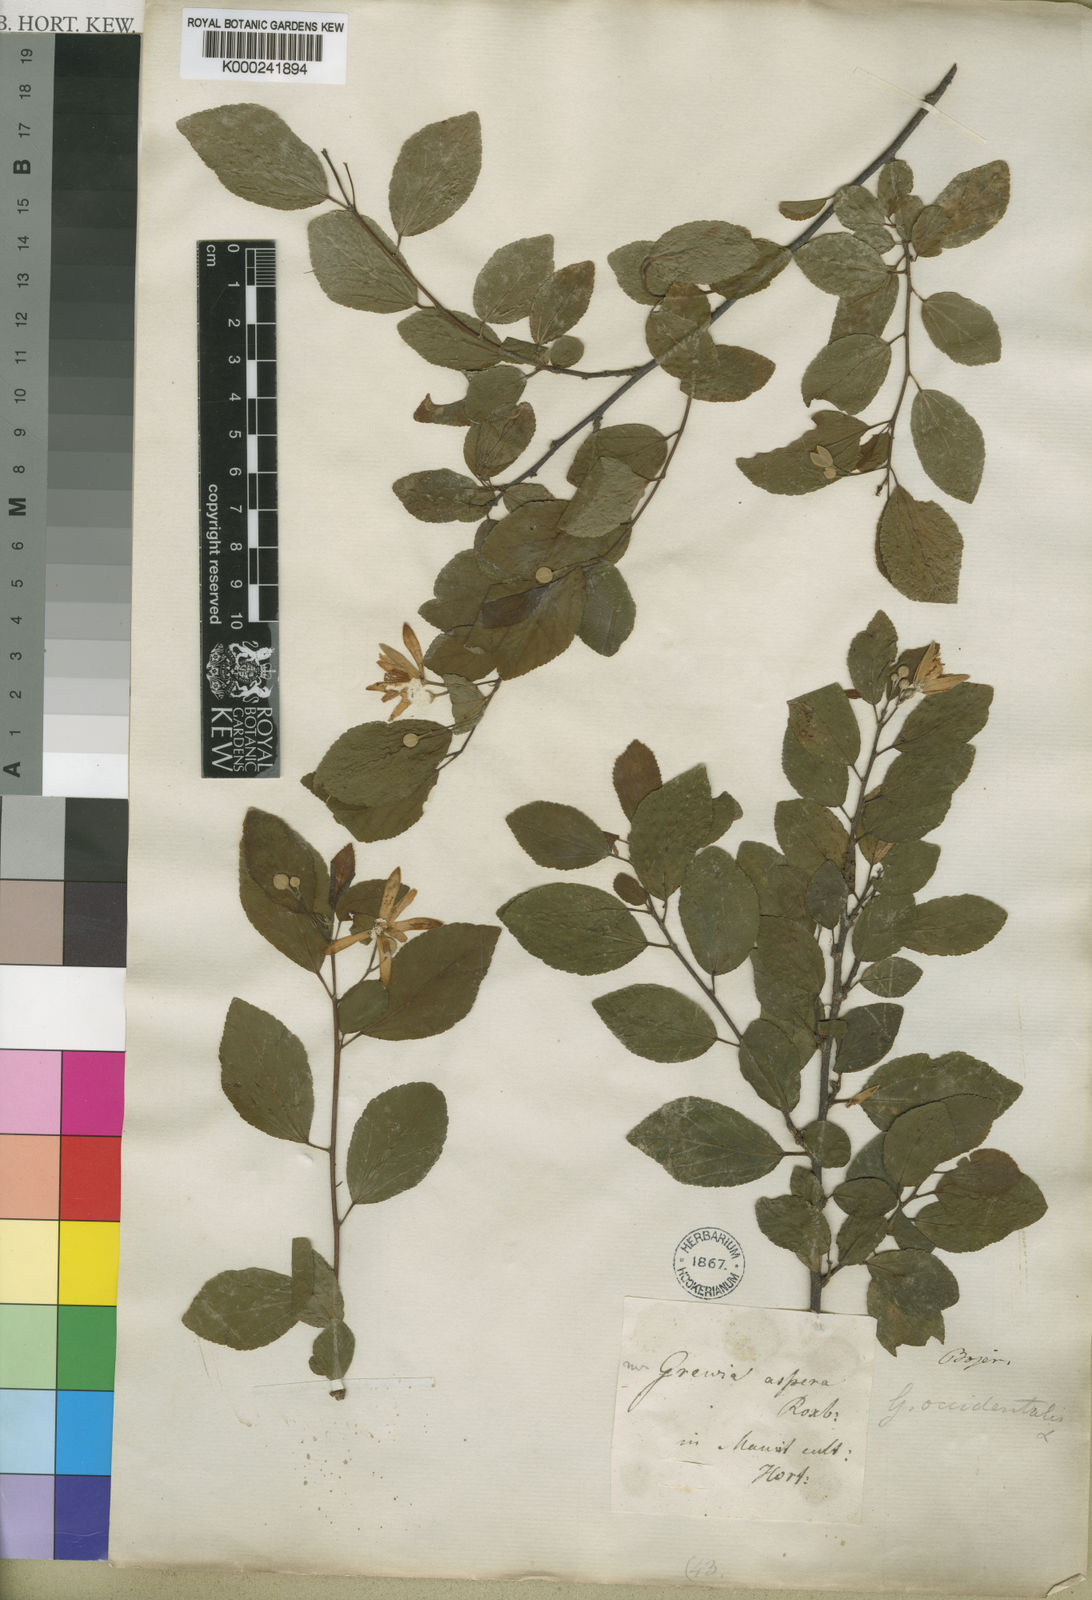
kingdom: Plantae
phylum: Tracheophyta
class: Magnoliopsida
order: Malvales
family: Malvaceae
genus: Grewia
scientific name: Grewia occidentalis
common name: Crossberry
